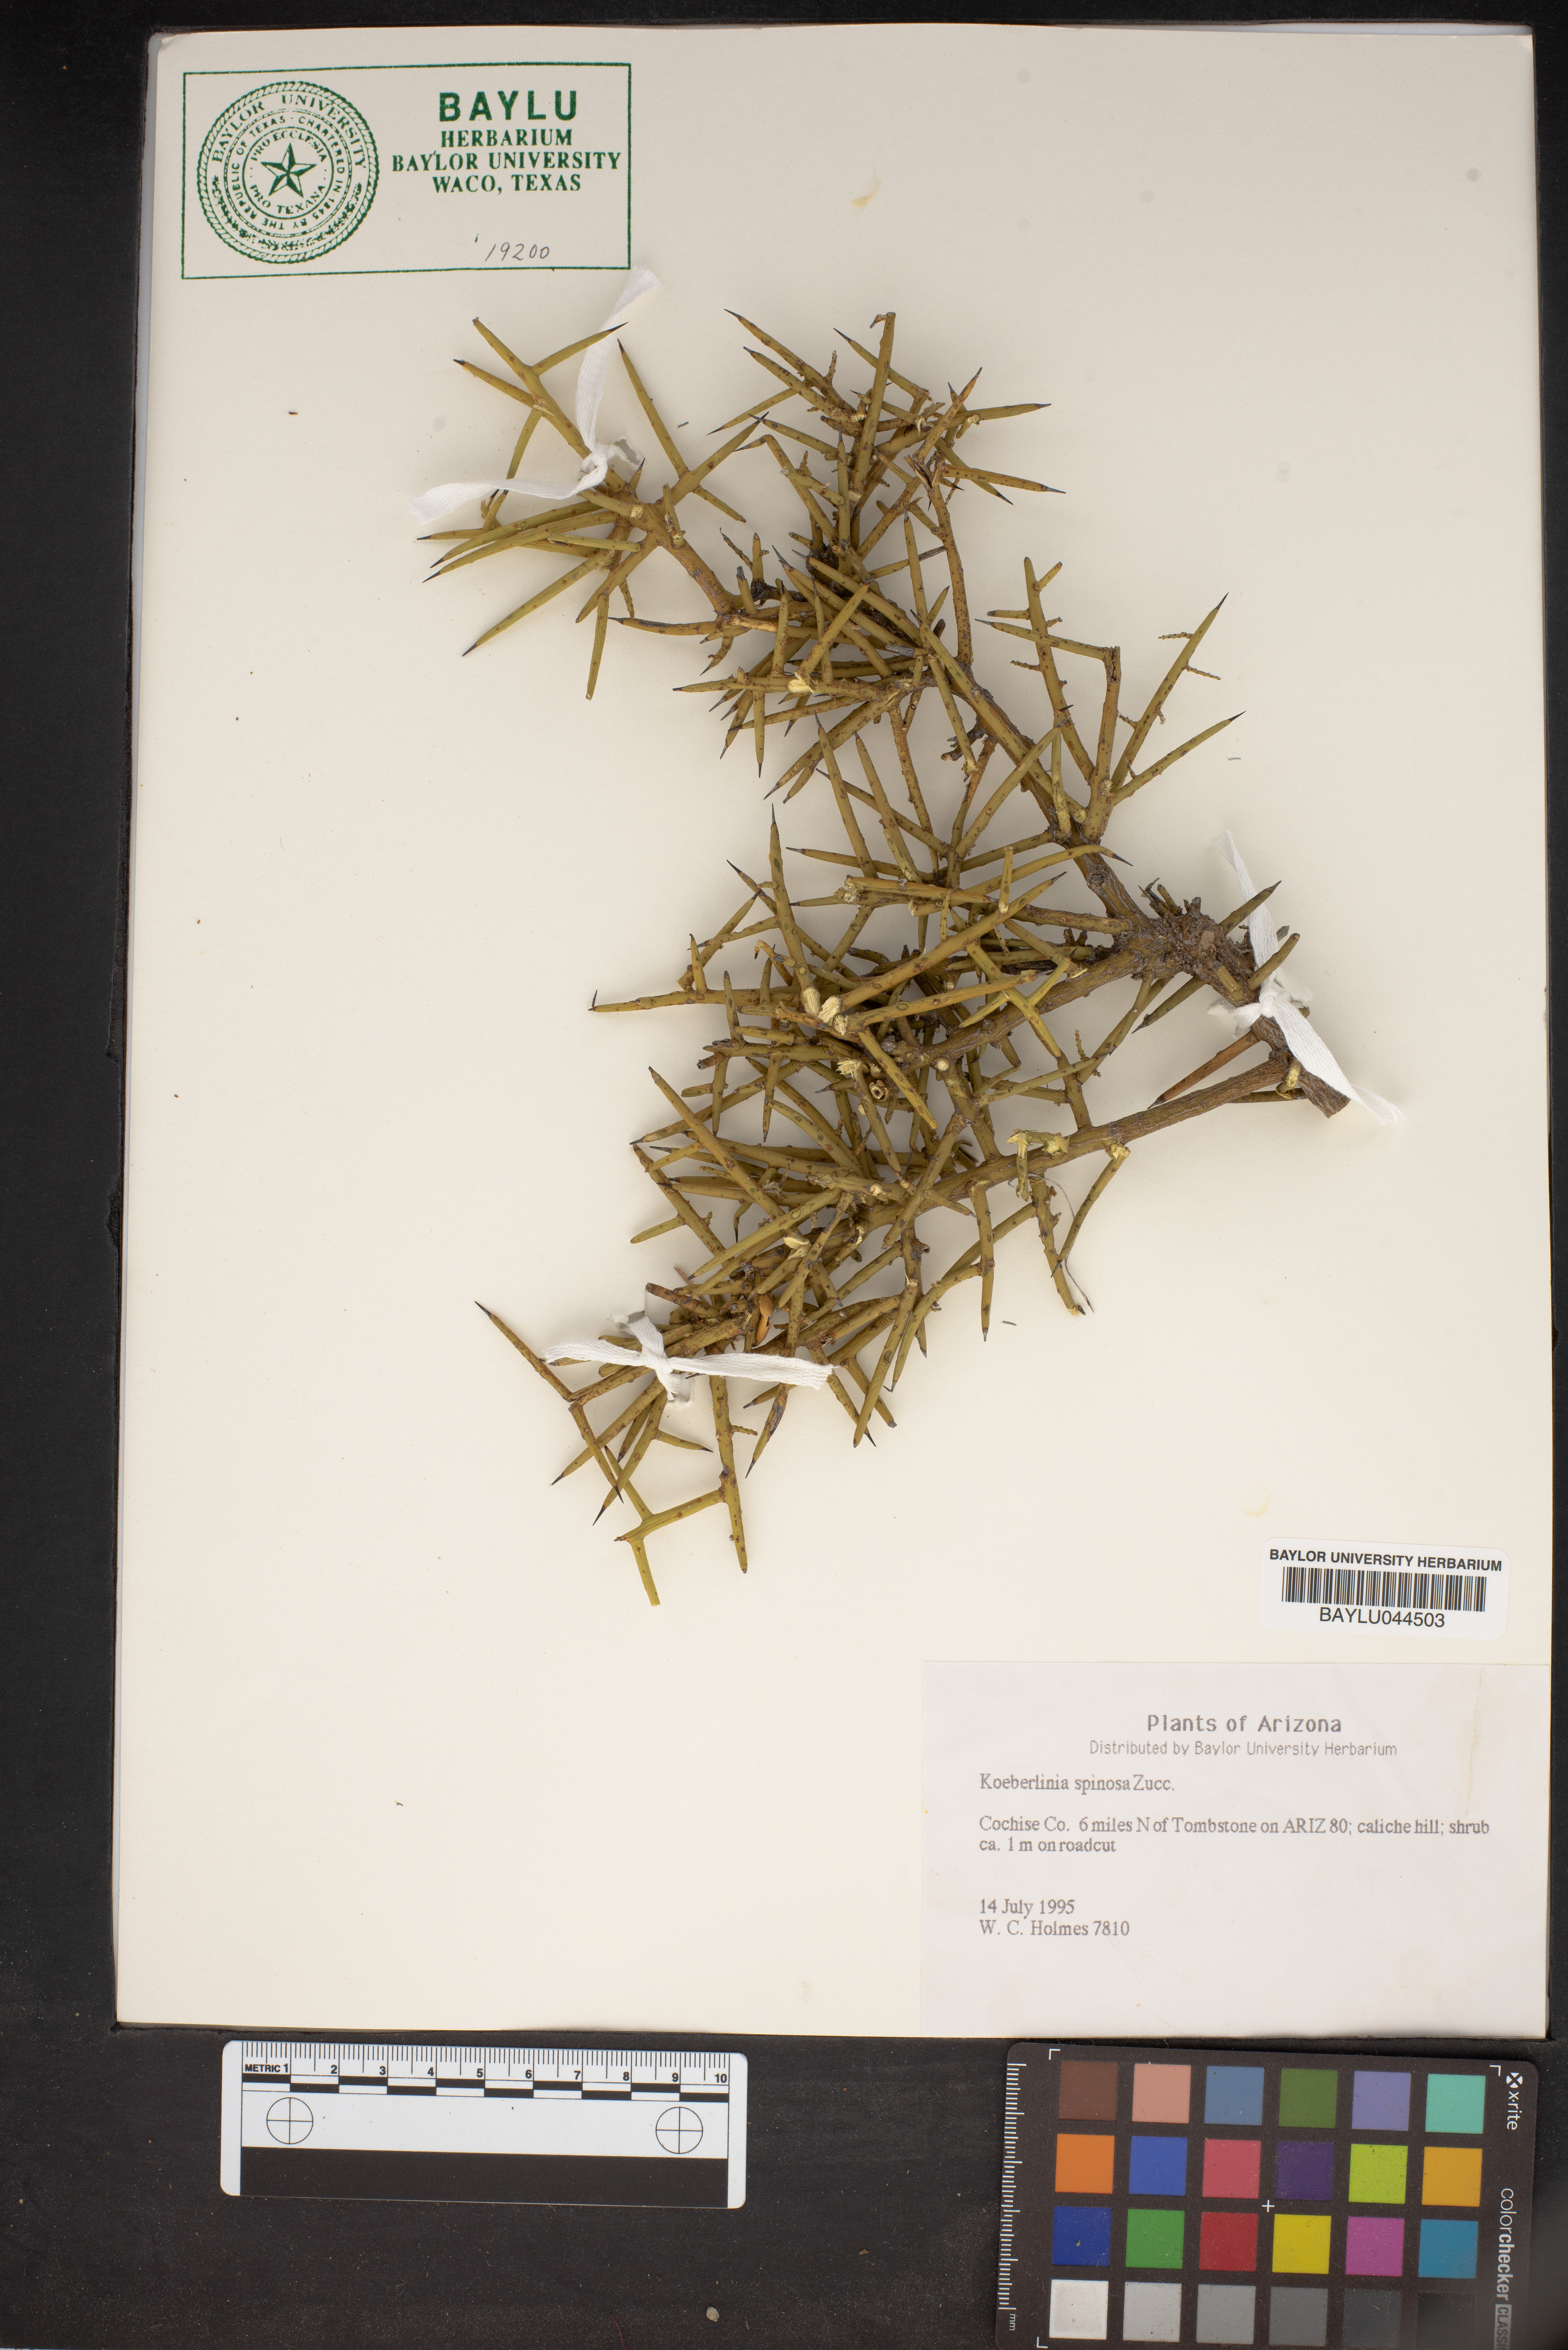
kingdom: Plantae
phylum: Tracheophyta
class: Magnoliopsida
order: Brassicales
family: Koeberliniaceae
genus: Koeberlinia
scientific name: Koeberlinia spinosa
